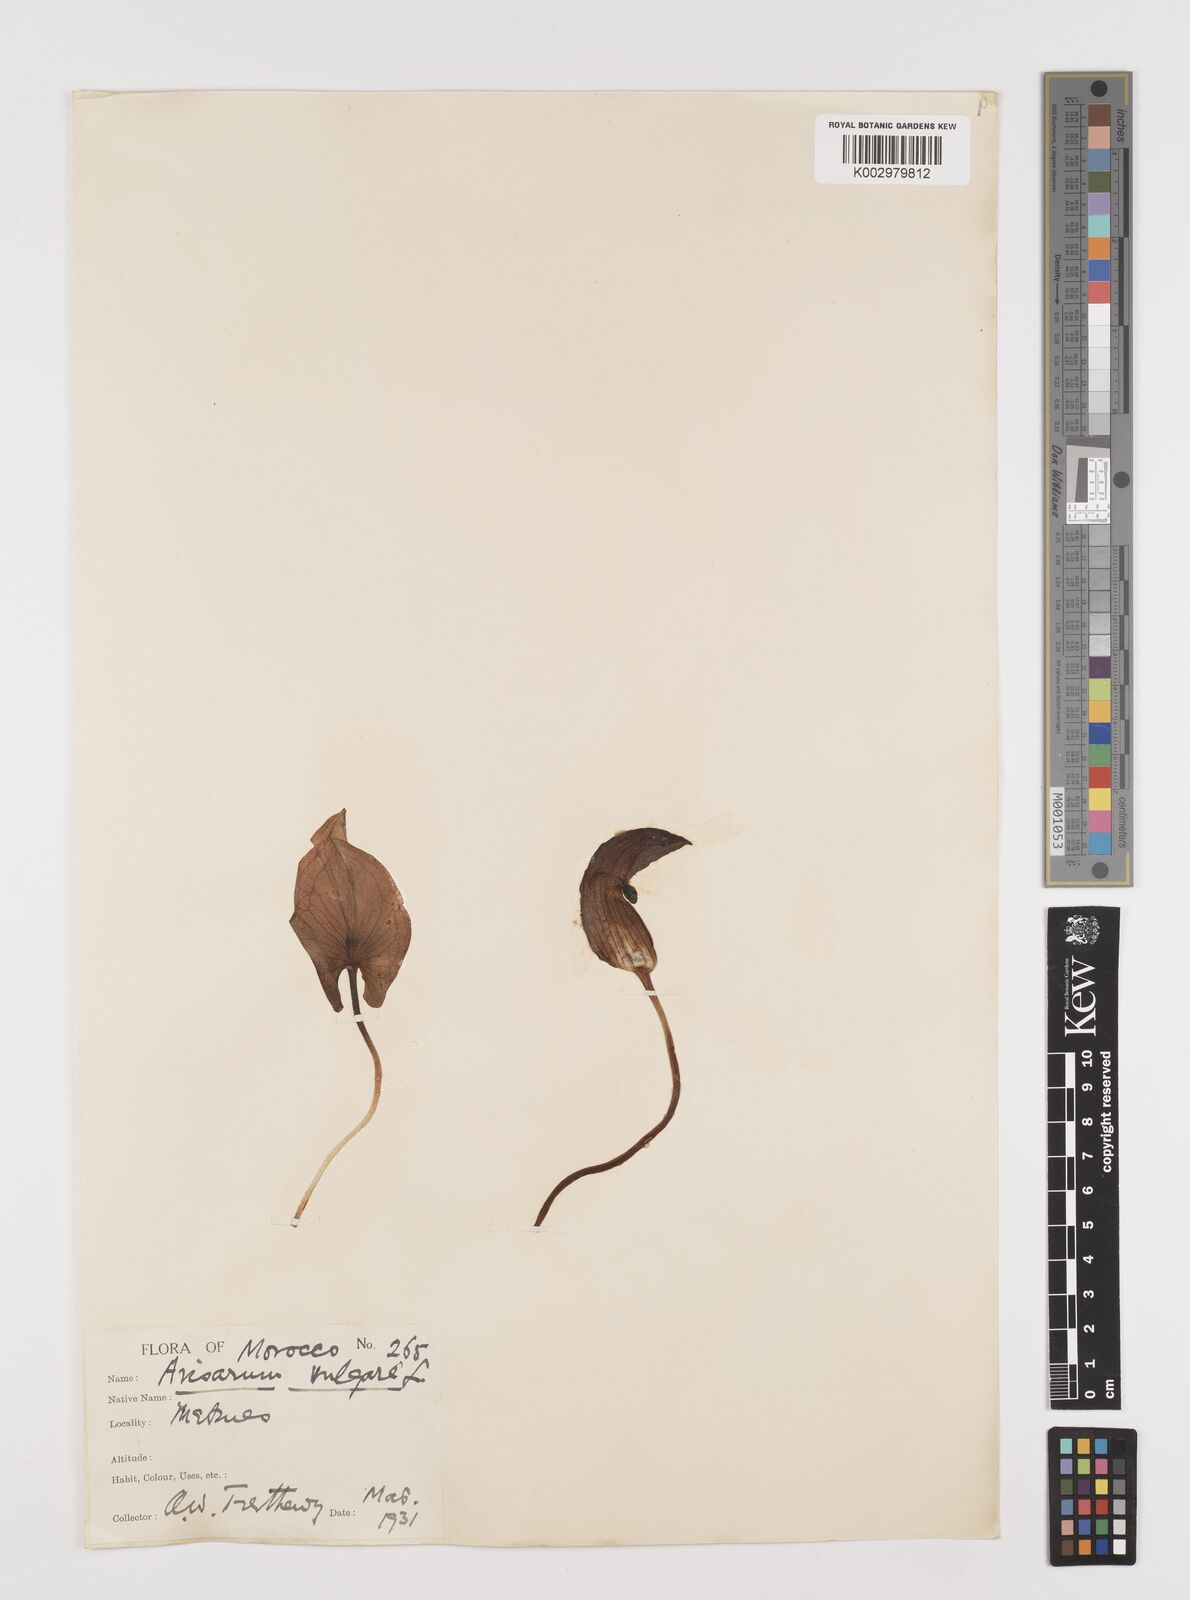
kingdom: Plantae
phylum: Tracheophyta
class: Liliopsida
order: Alismatales
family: Araceae
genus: Arisarum
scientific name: Arisarum vulgare
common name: Common arisarum
